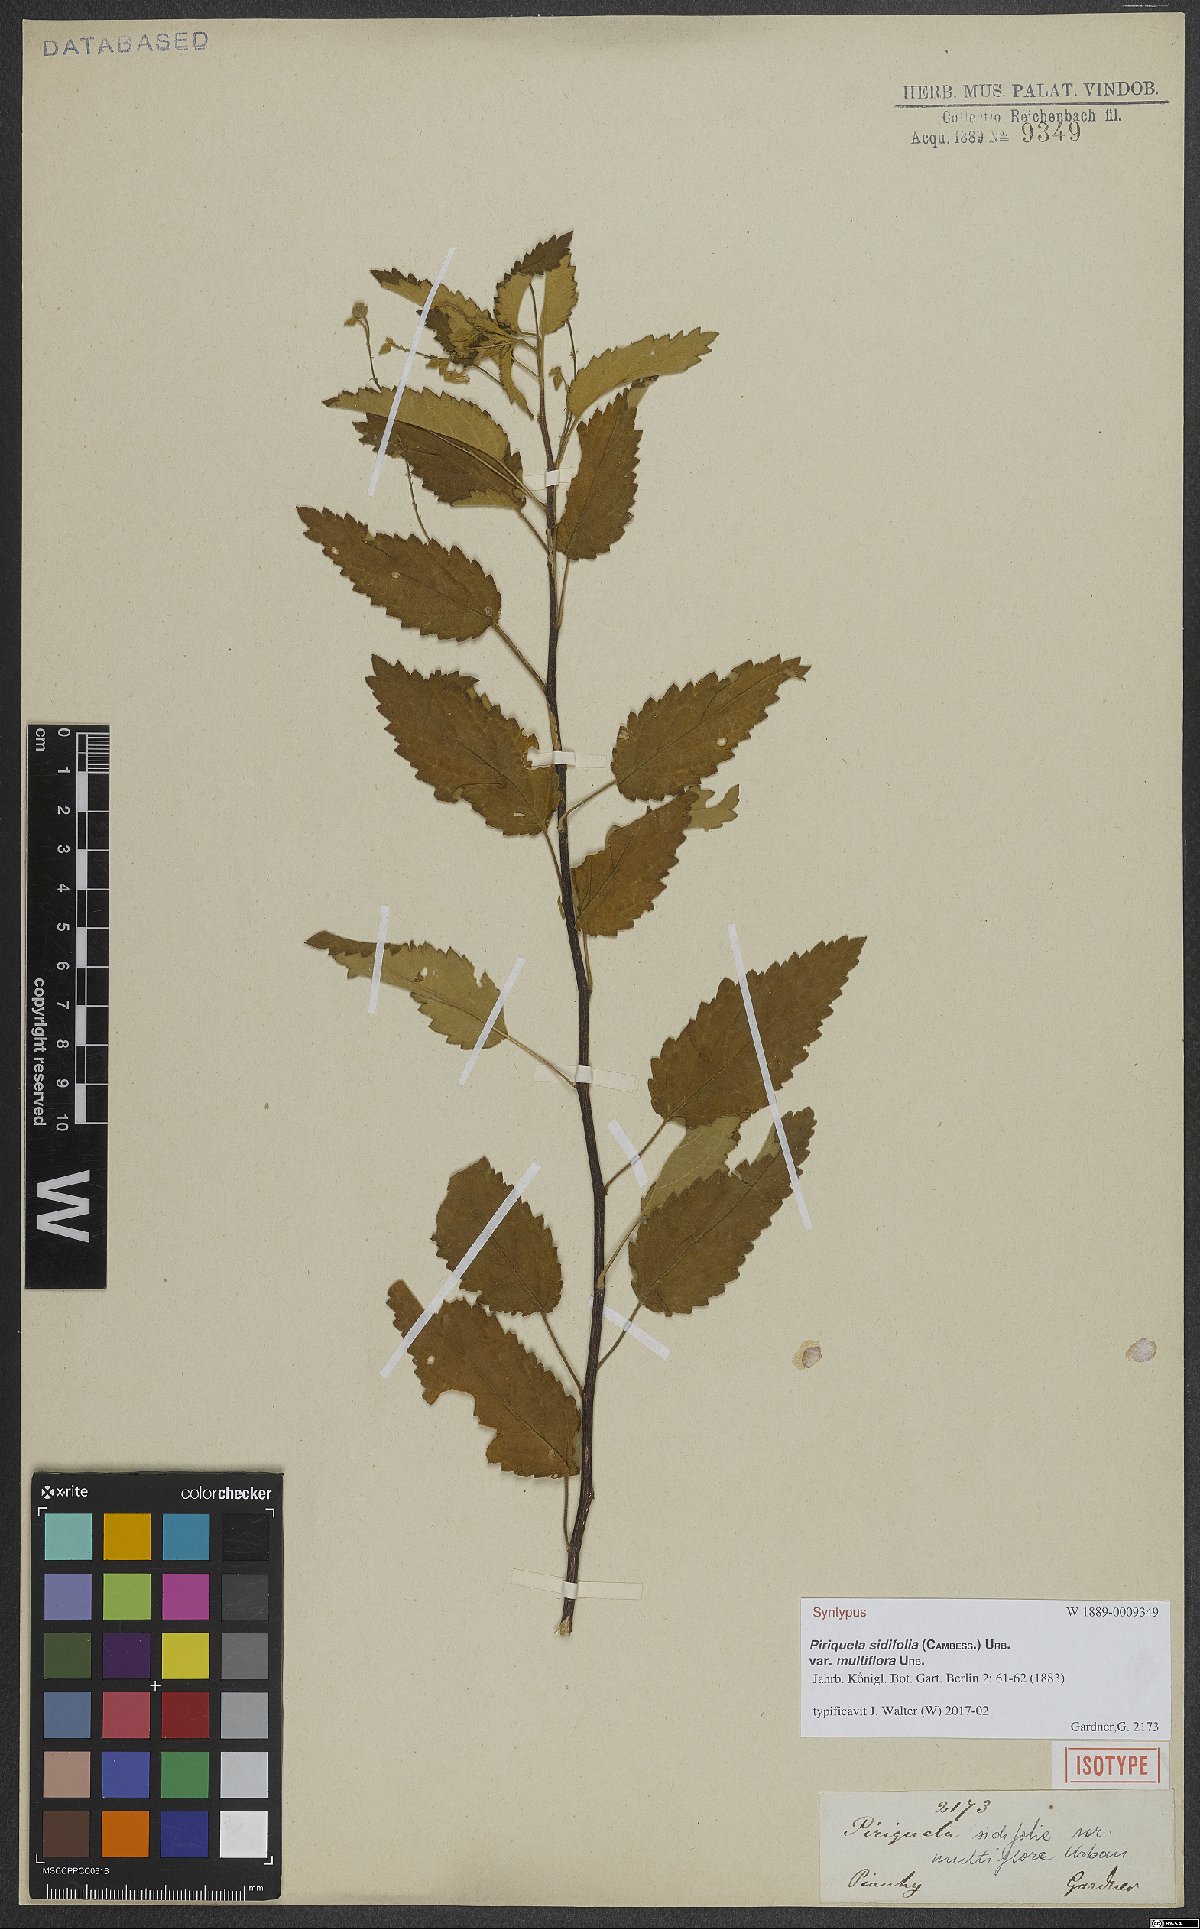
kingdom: Plantae
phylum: Tracheophyta
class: Magnoliopsida
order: Malpighiales
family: Turneraceae
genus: Piriqueta
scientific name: Piriqueta sidifolia
